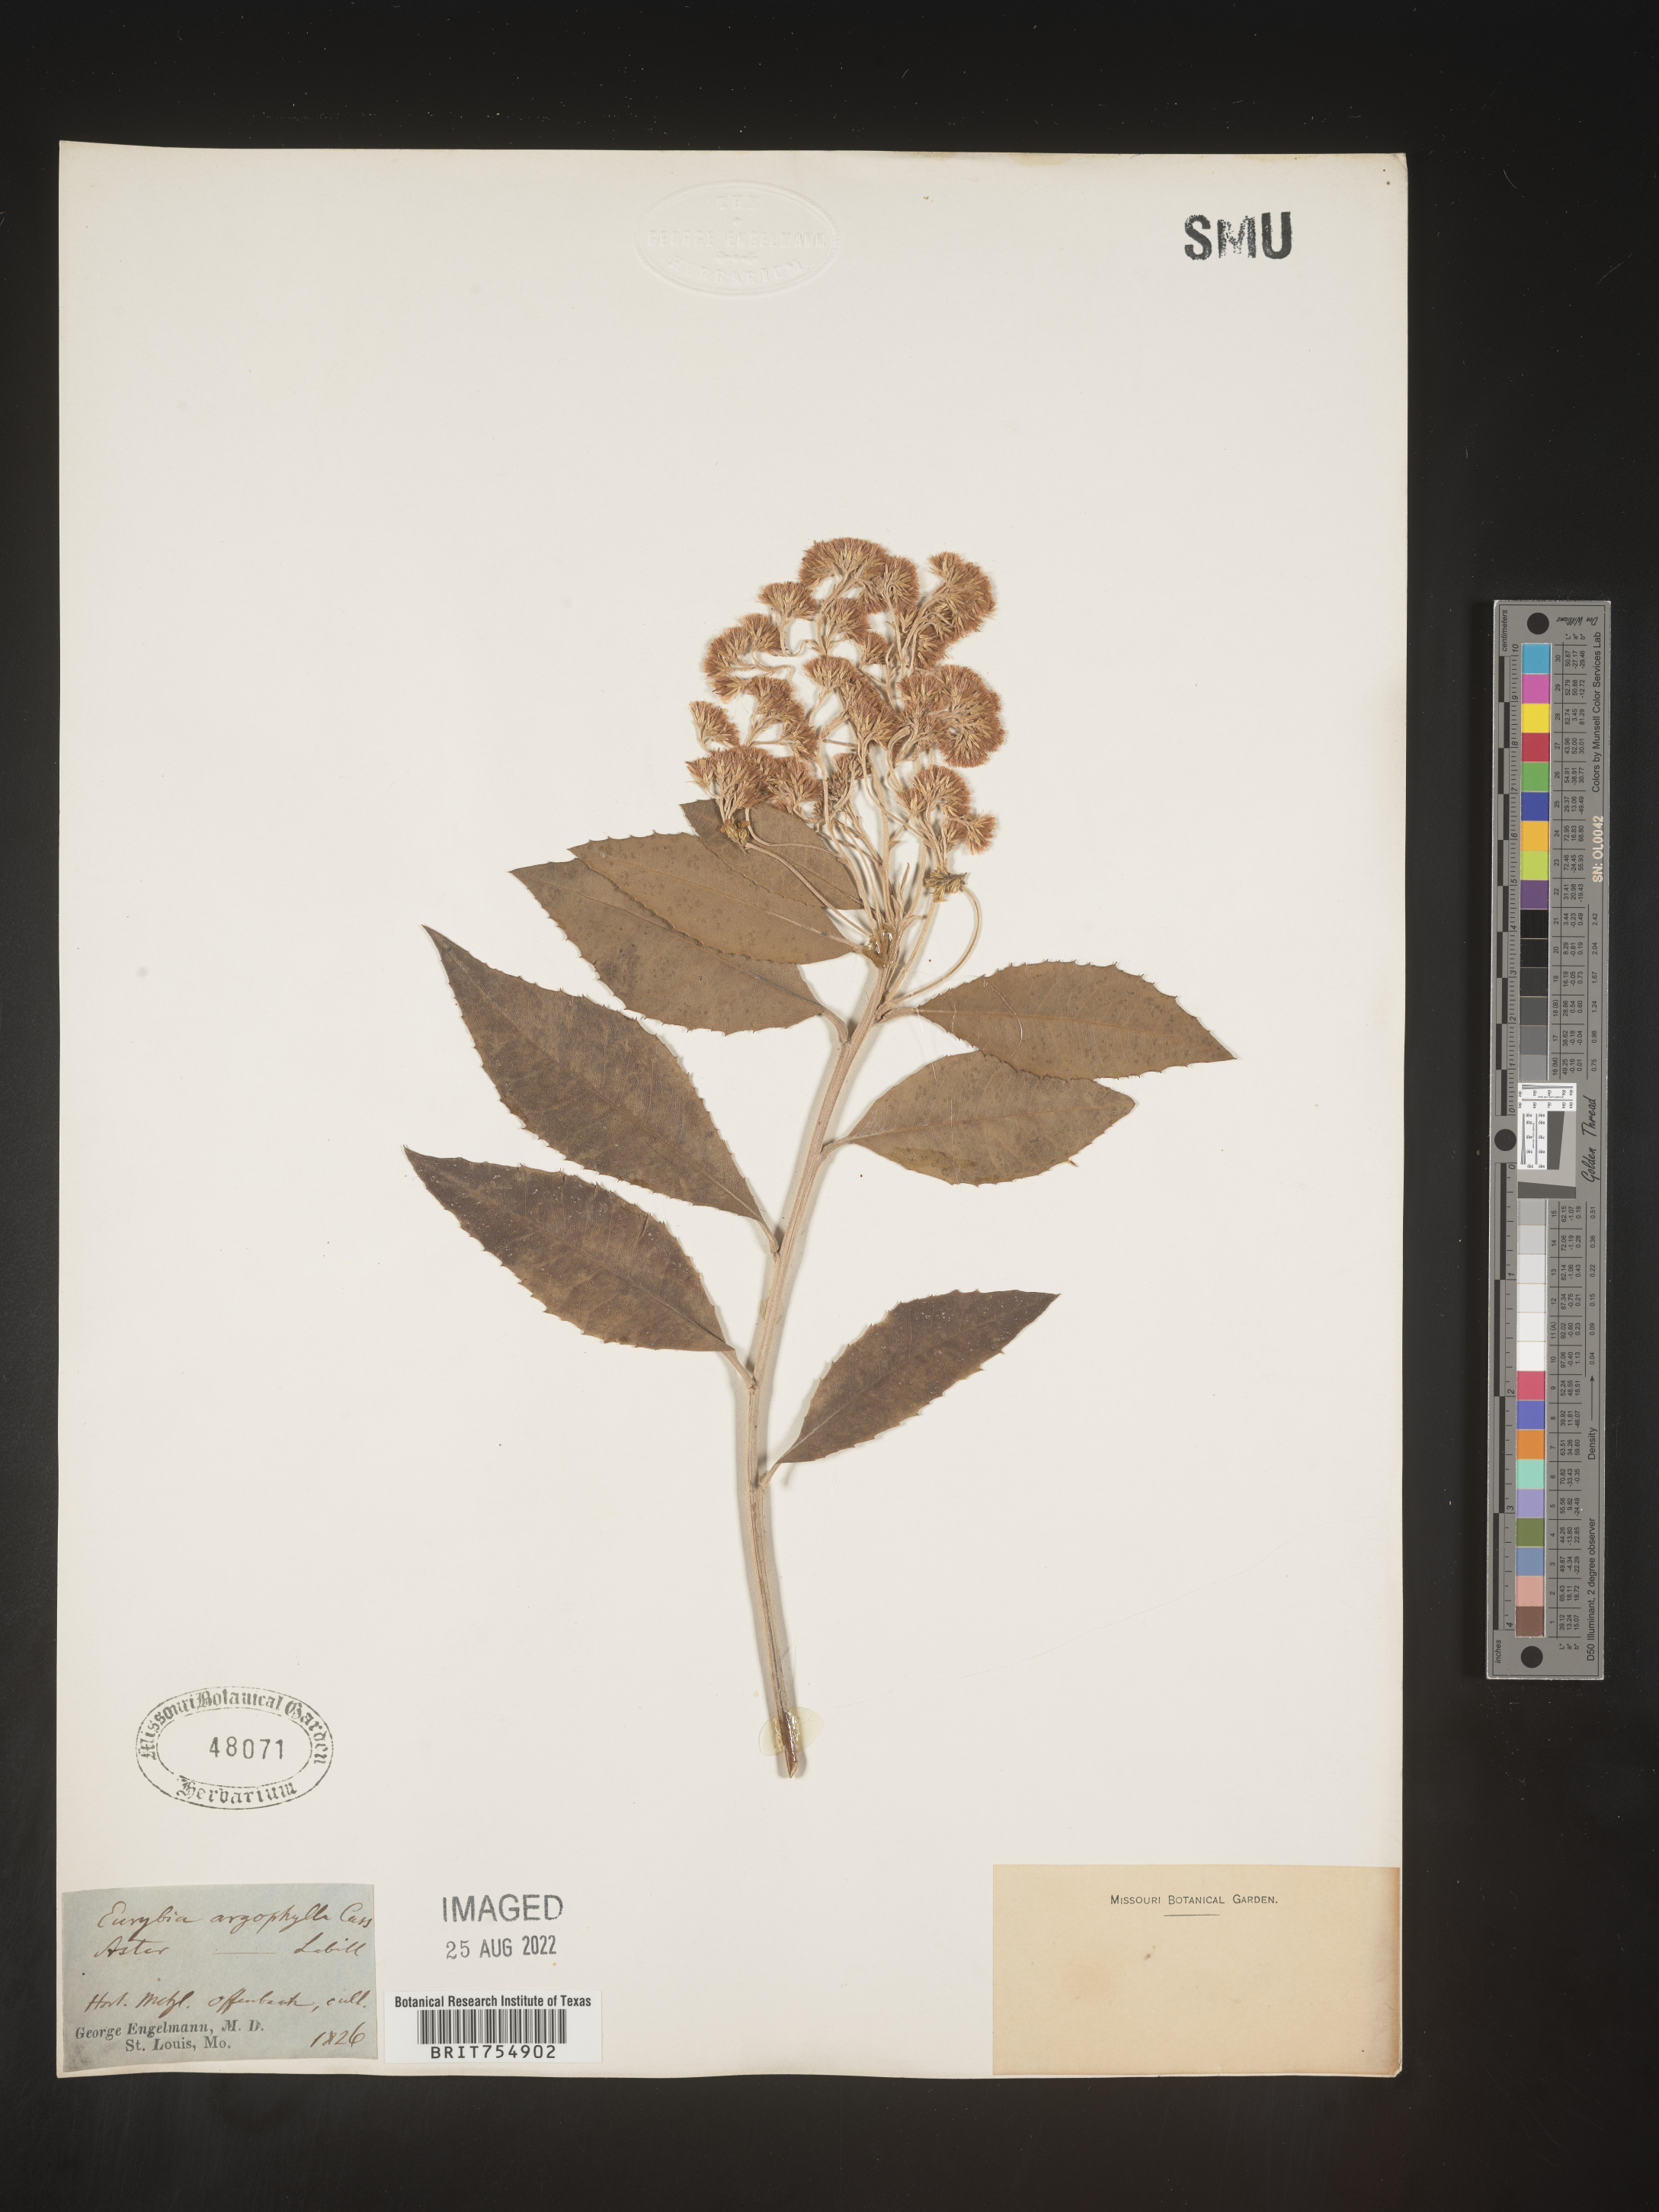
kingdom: Plantae
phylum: Tracheophyta
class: Magnoliopsida
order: Asterales
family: Asteraceae
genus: Symphyotrichum
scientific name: Symphyotrichum
